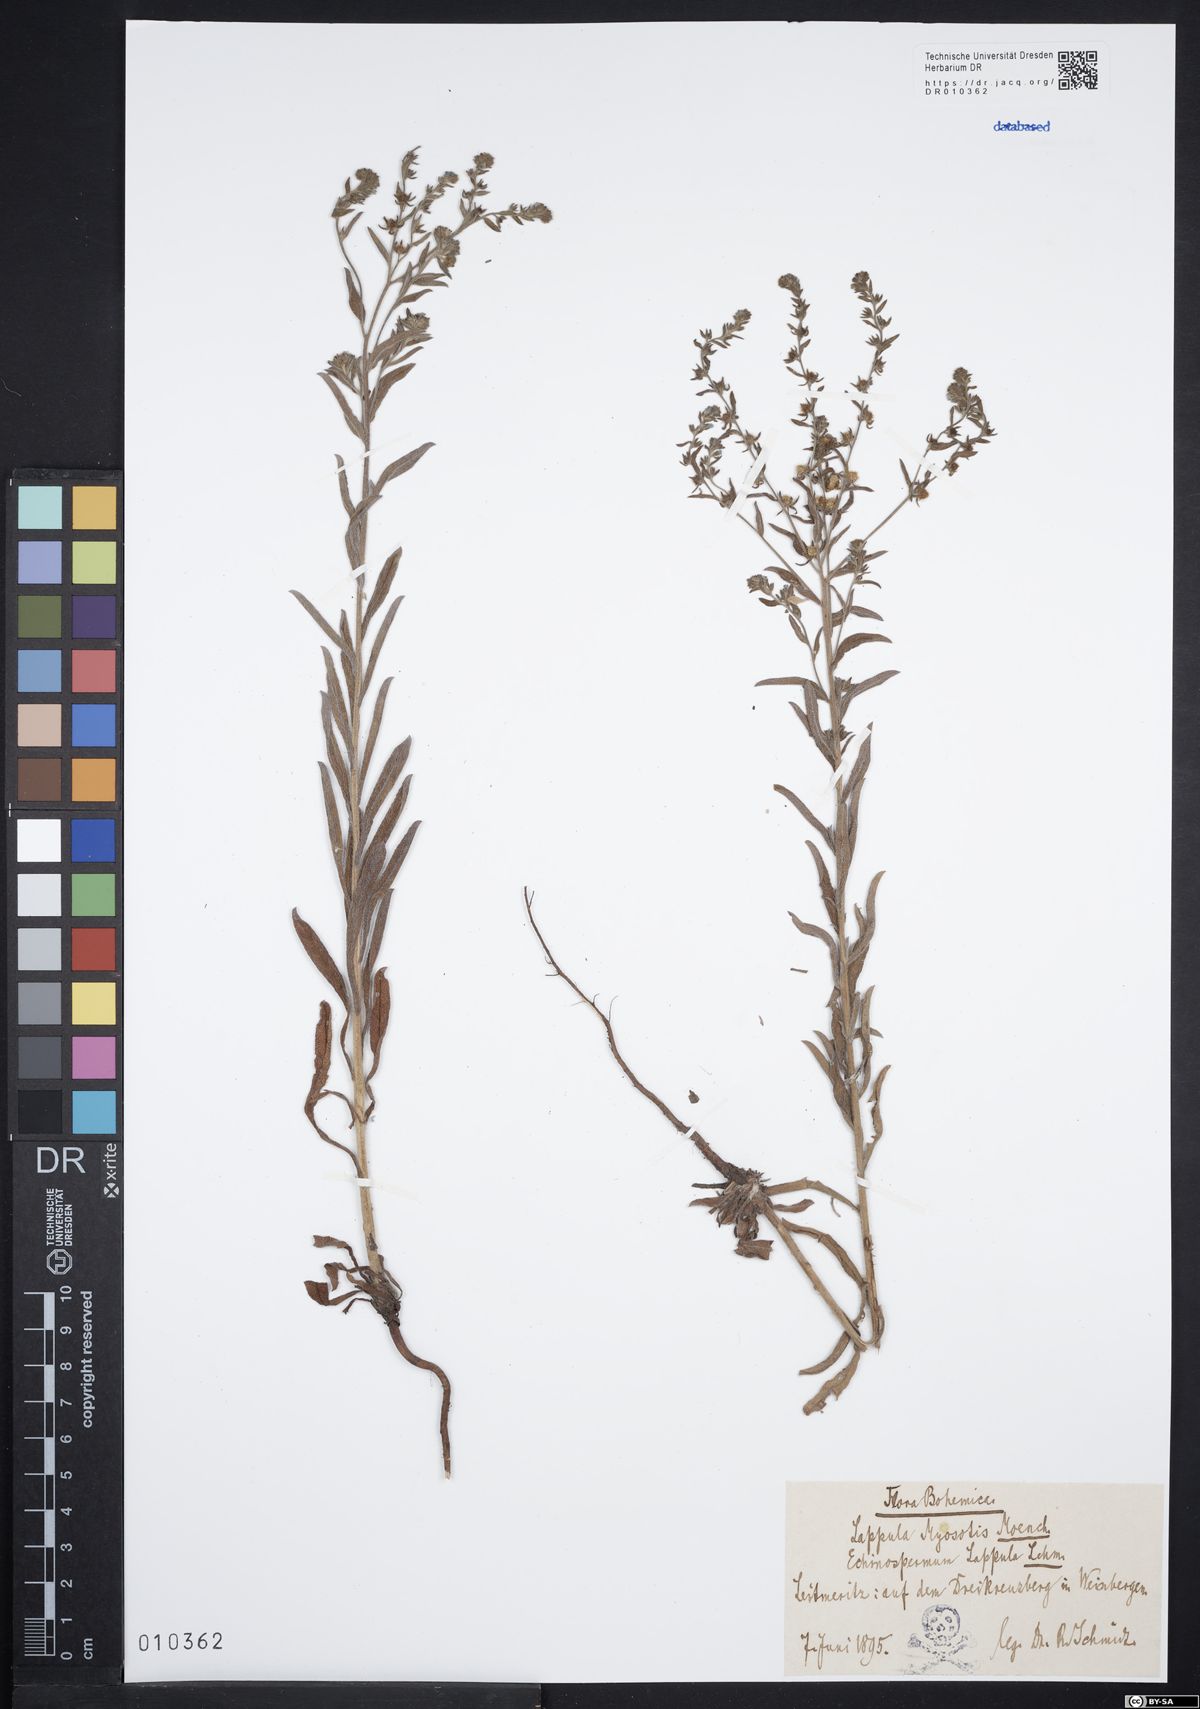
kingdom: Plantae
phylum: Tracheophyta
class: Magnoliopsida
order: Boraginales
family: Boraginaceae
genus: Lappula
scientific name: Lappula squarrosa
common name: European stickseed
